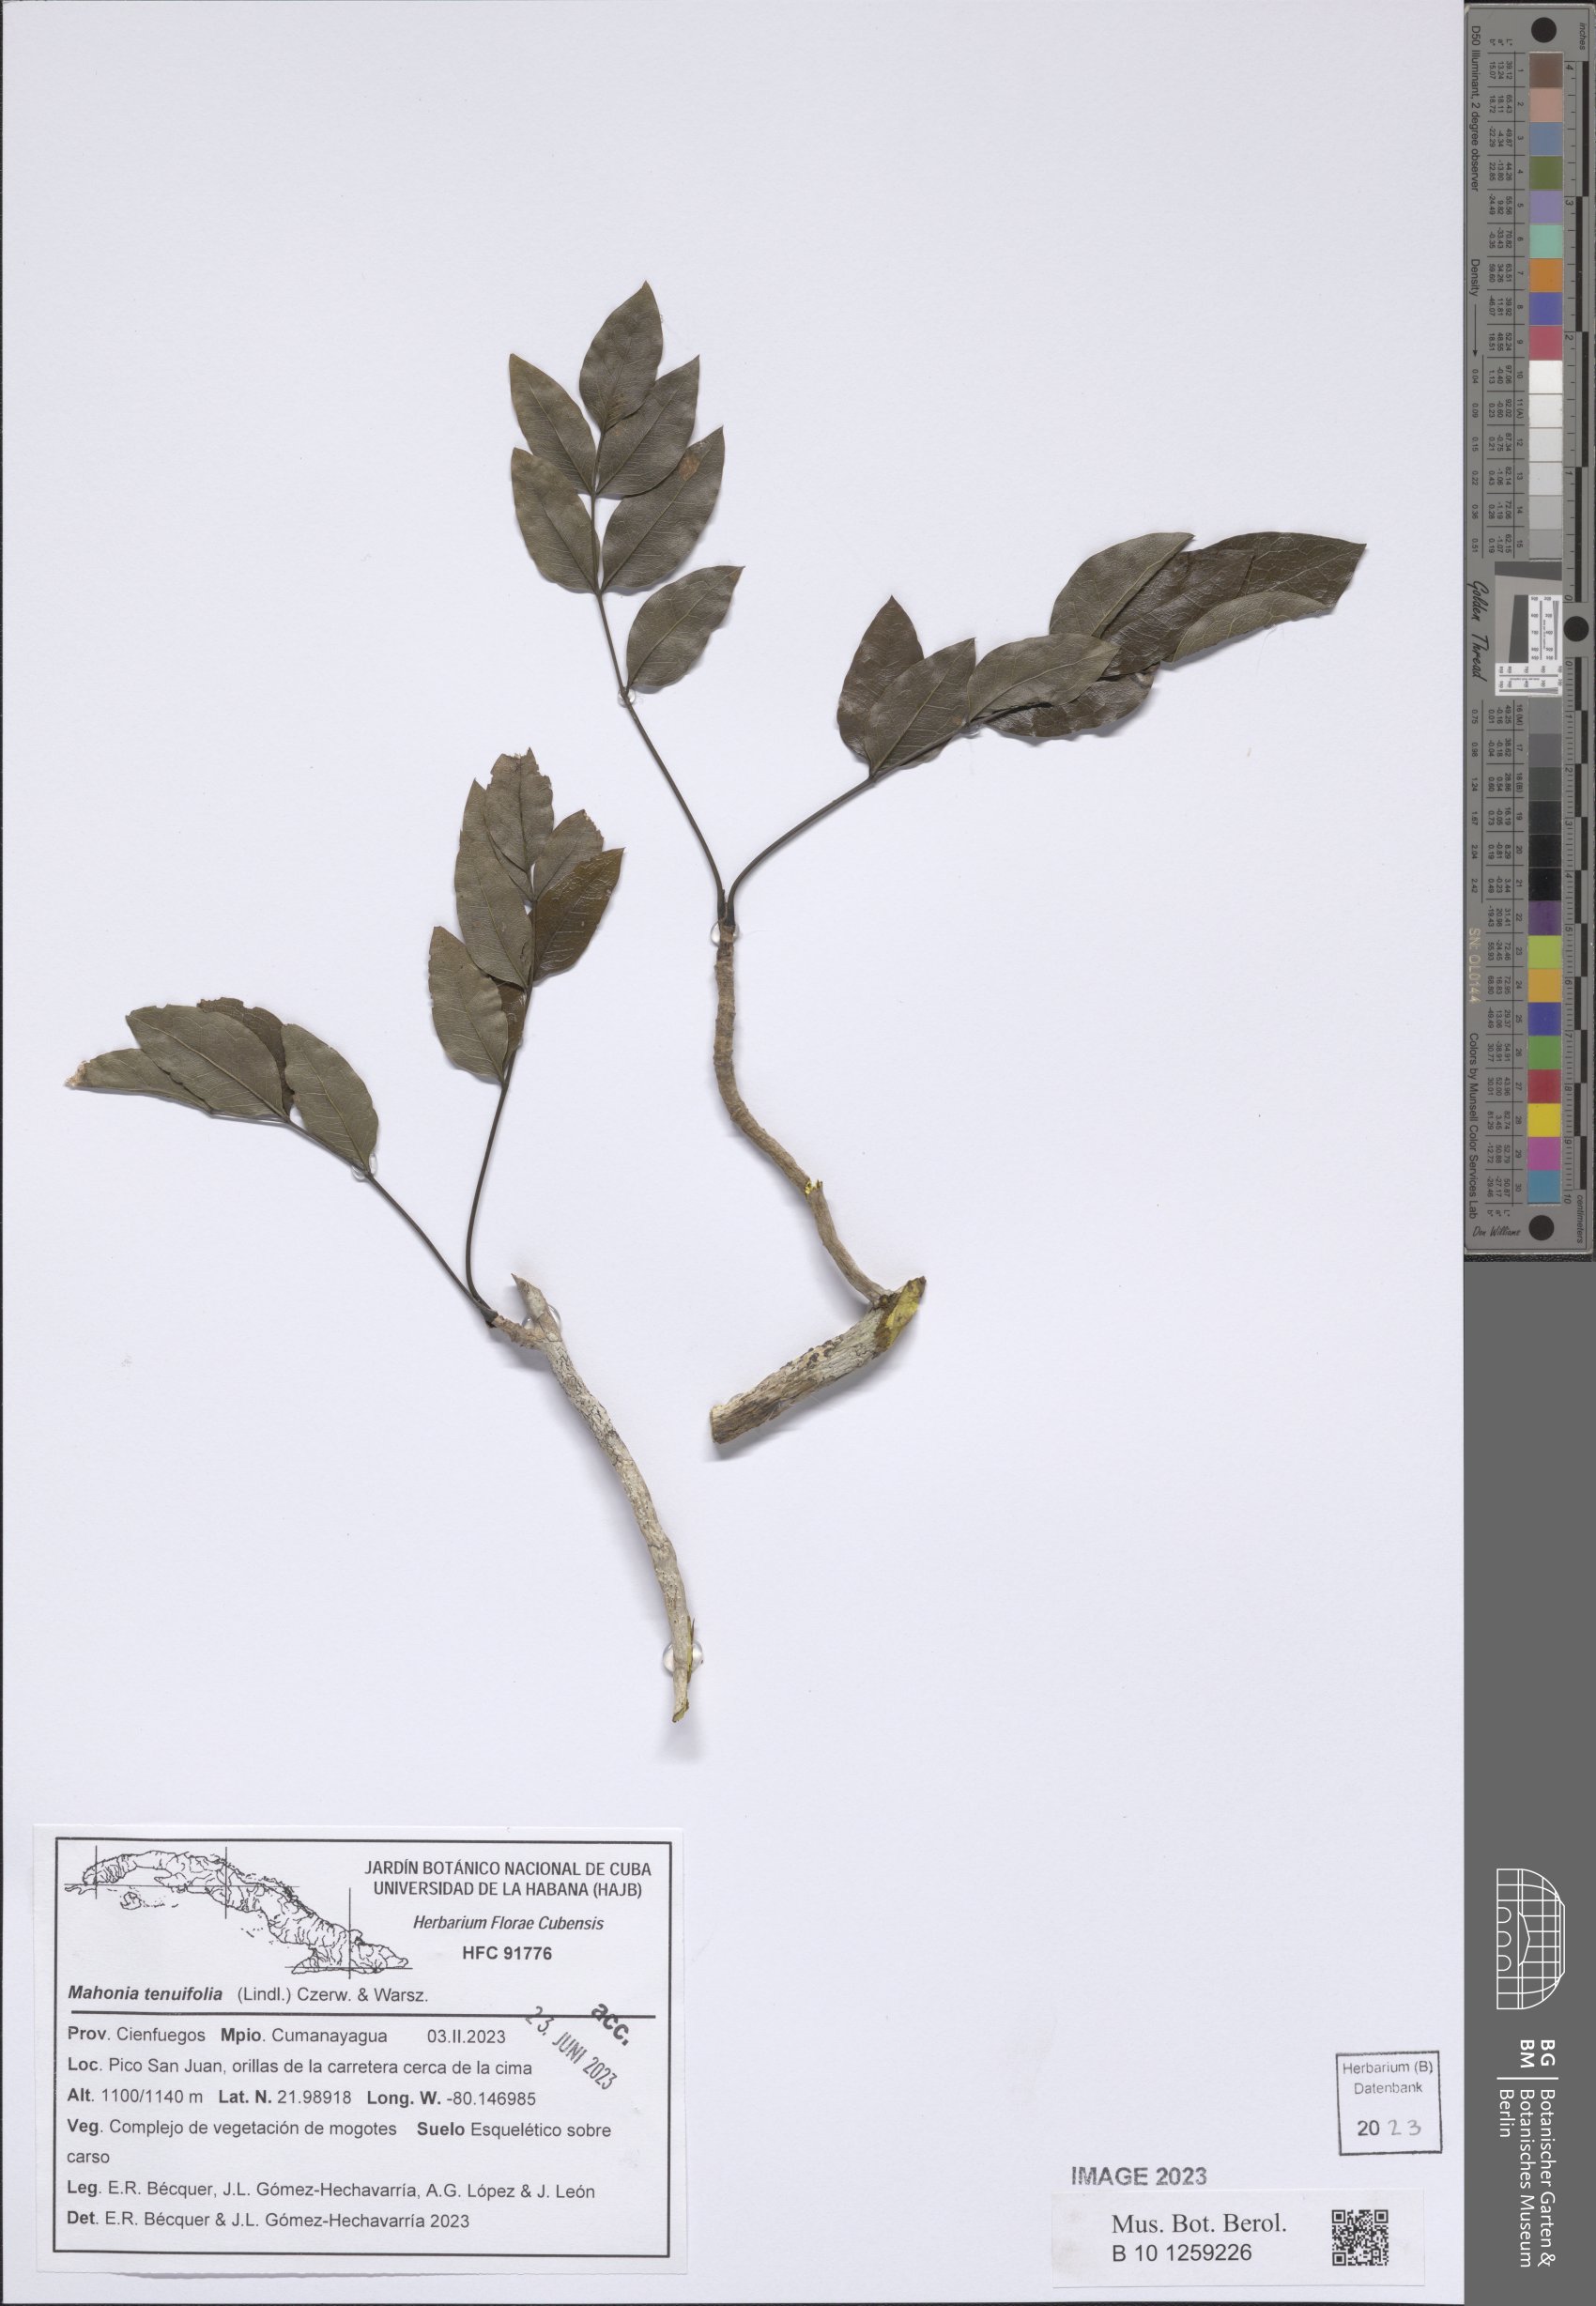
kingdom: Plantae
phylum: Tracheophyta
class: Magnoliopsida
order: Ranunculales
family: Berberidaceae
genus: Mahonia
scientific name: Mahonia
